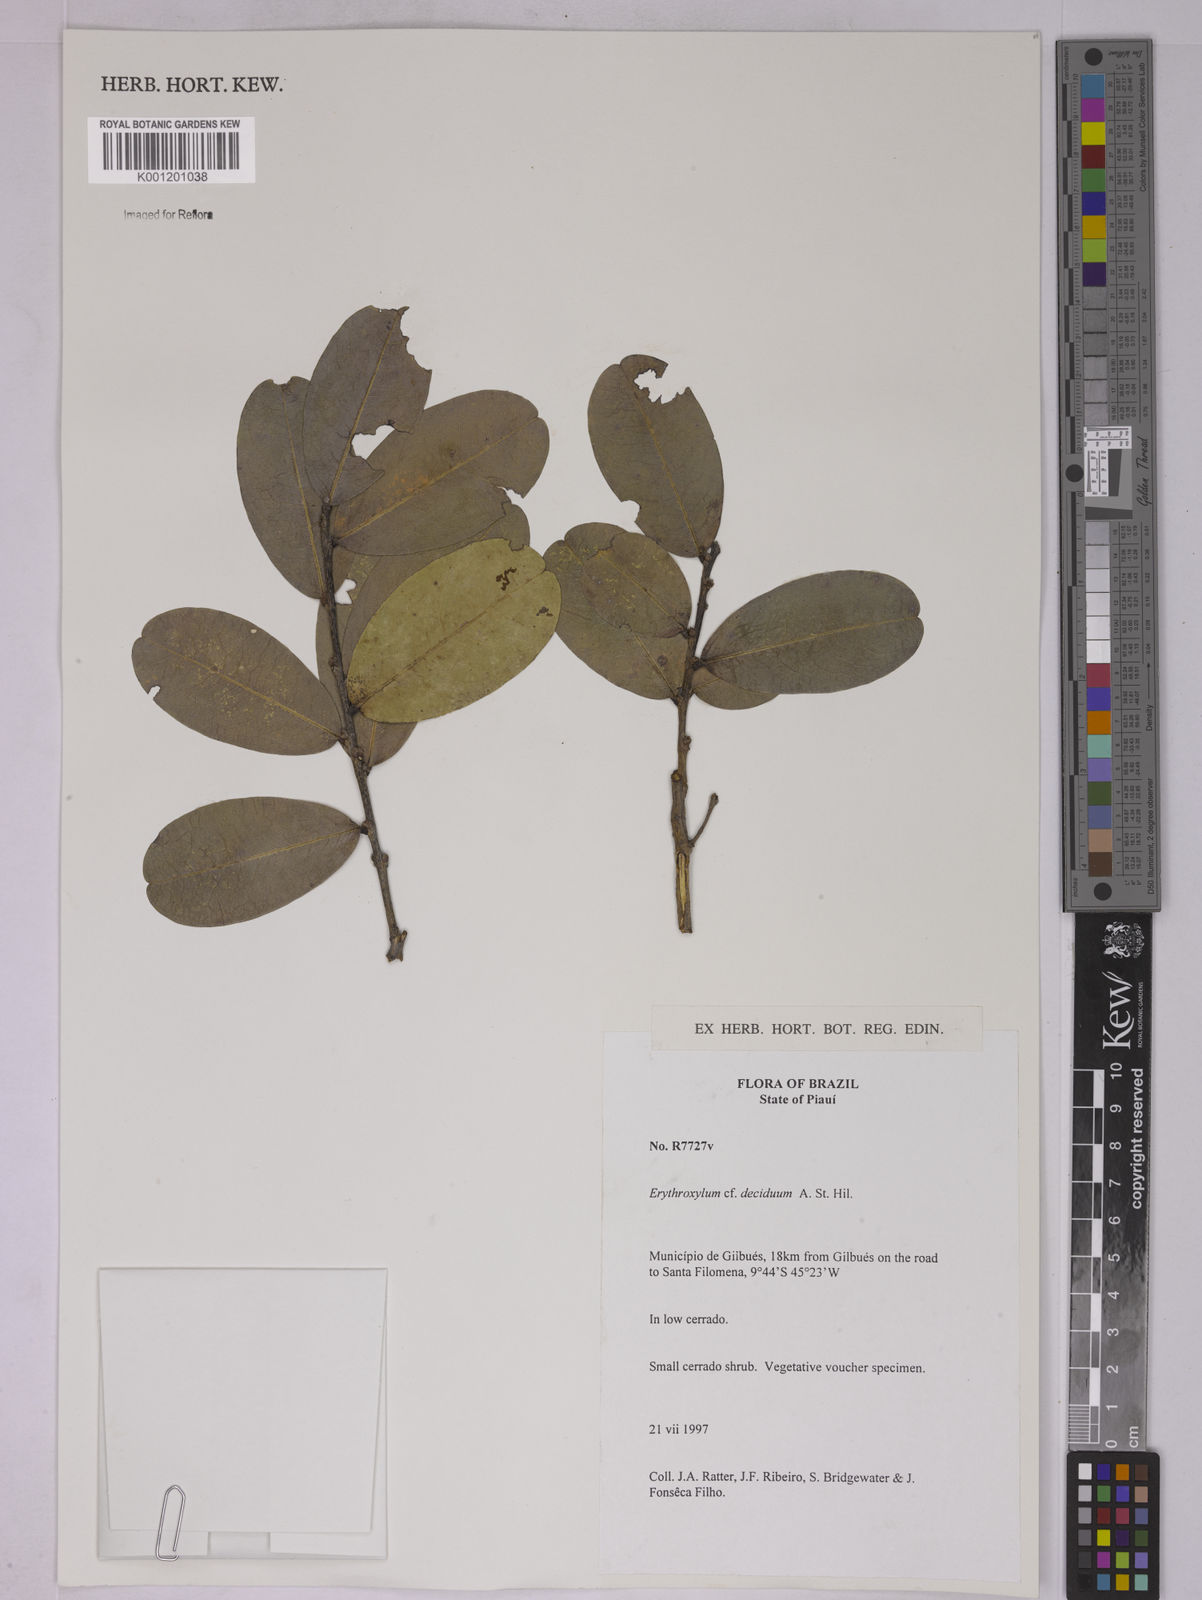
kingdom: Plantae
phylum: Tracheophyta
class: Magnoliopsida
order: Malpighiales
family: Erythroxylaceae
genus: Erythroxylum
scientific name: Erythroxylum deciduum
